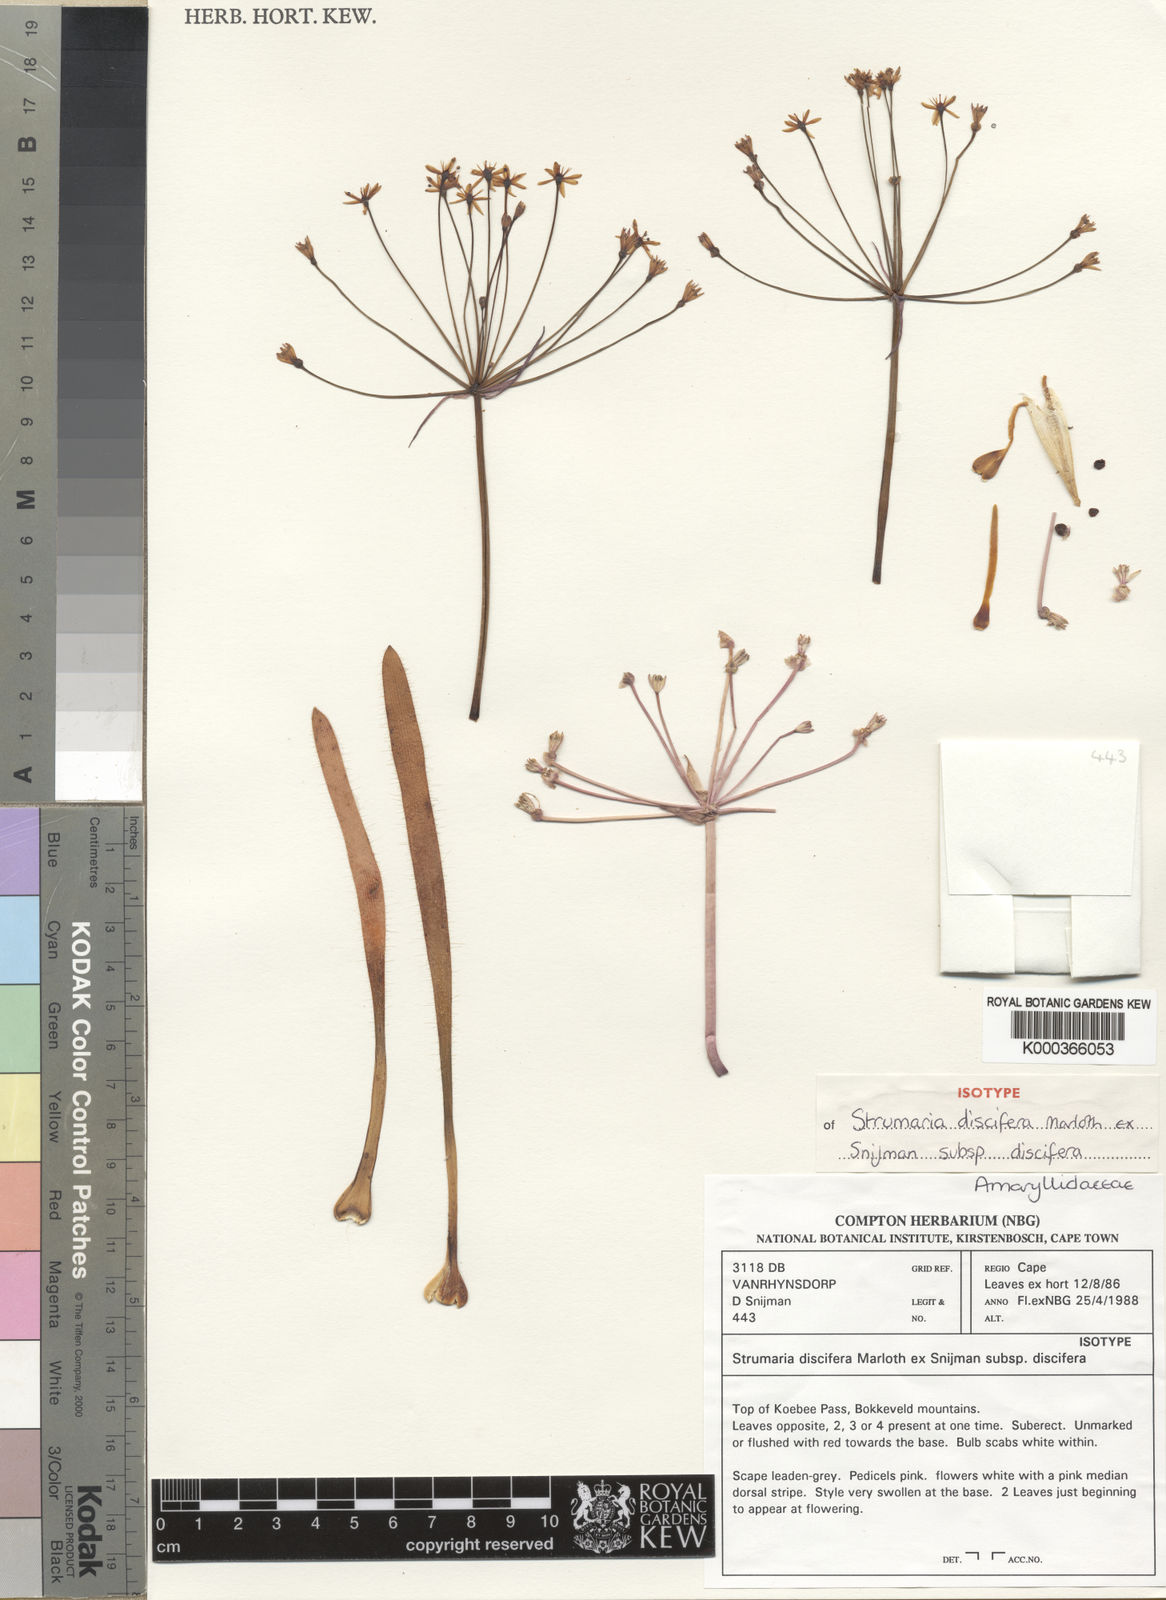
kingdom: Plantae
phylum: Tracheophyta
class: Liliopsida
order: Asparagales
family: Amaryllidaceae
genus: Strumaria
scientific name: Strumaria discifera
